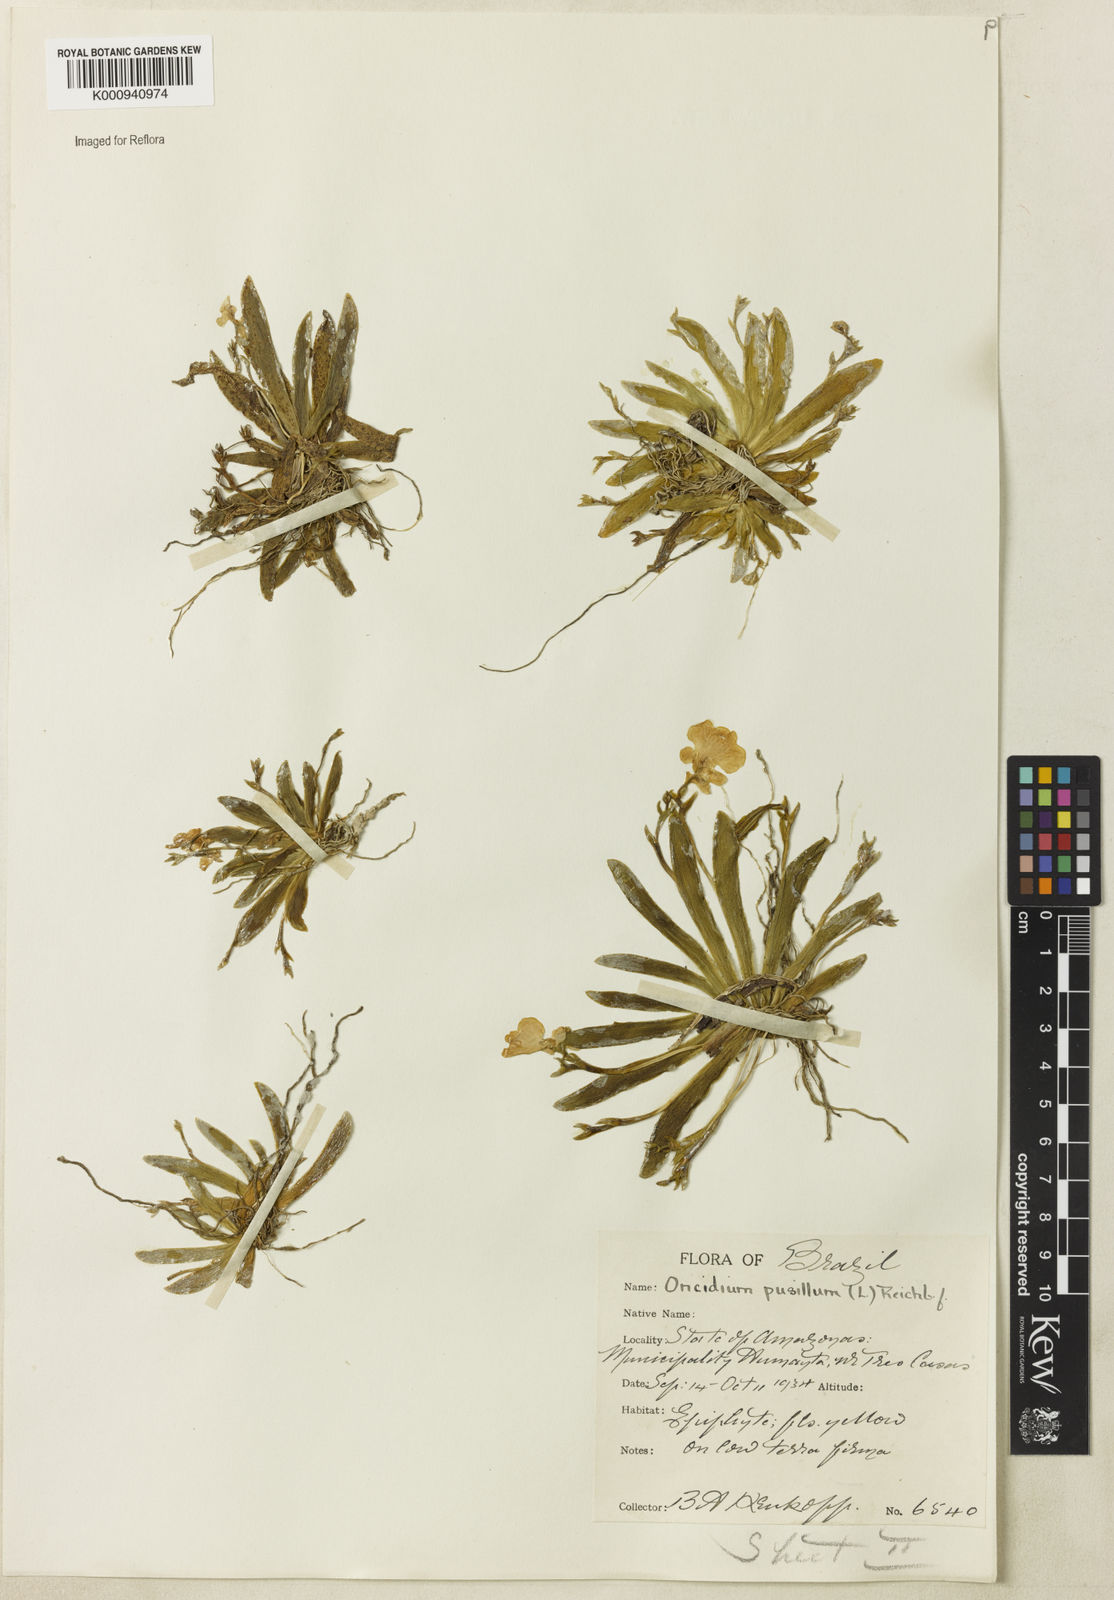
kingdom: Plantae
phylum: Tracheophyta
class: Liliopsida
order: Asparagales
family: Orchidaceae
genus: Erycina
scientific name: Erycina pusilla
